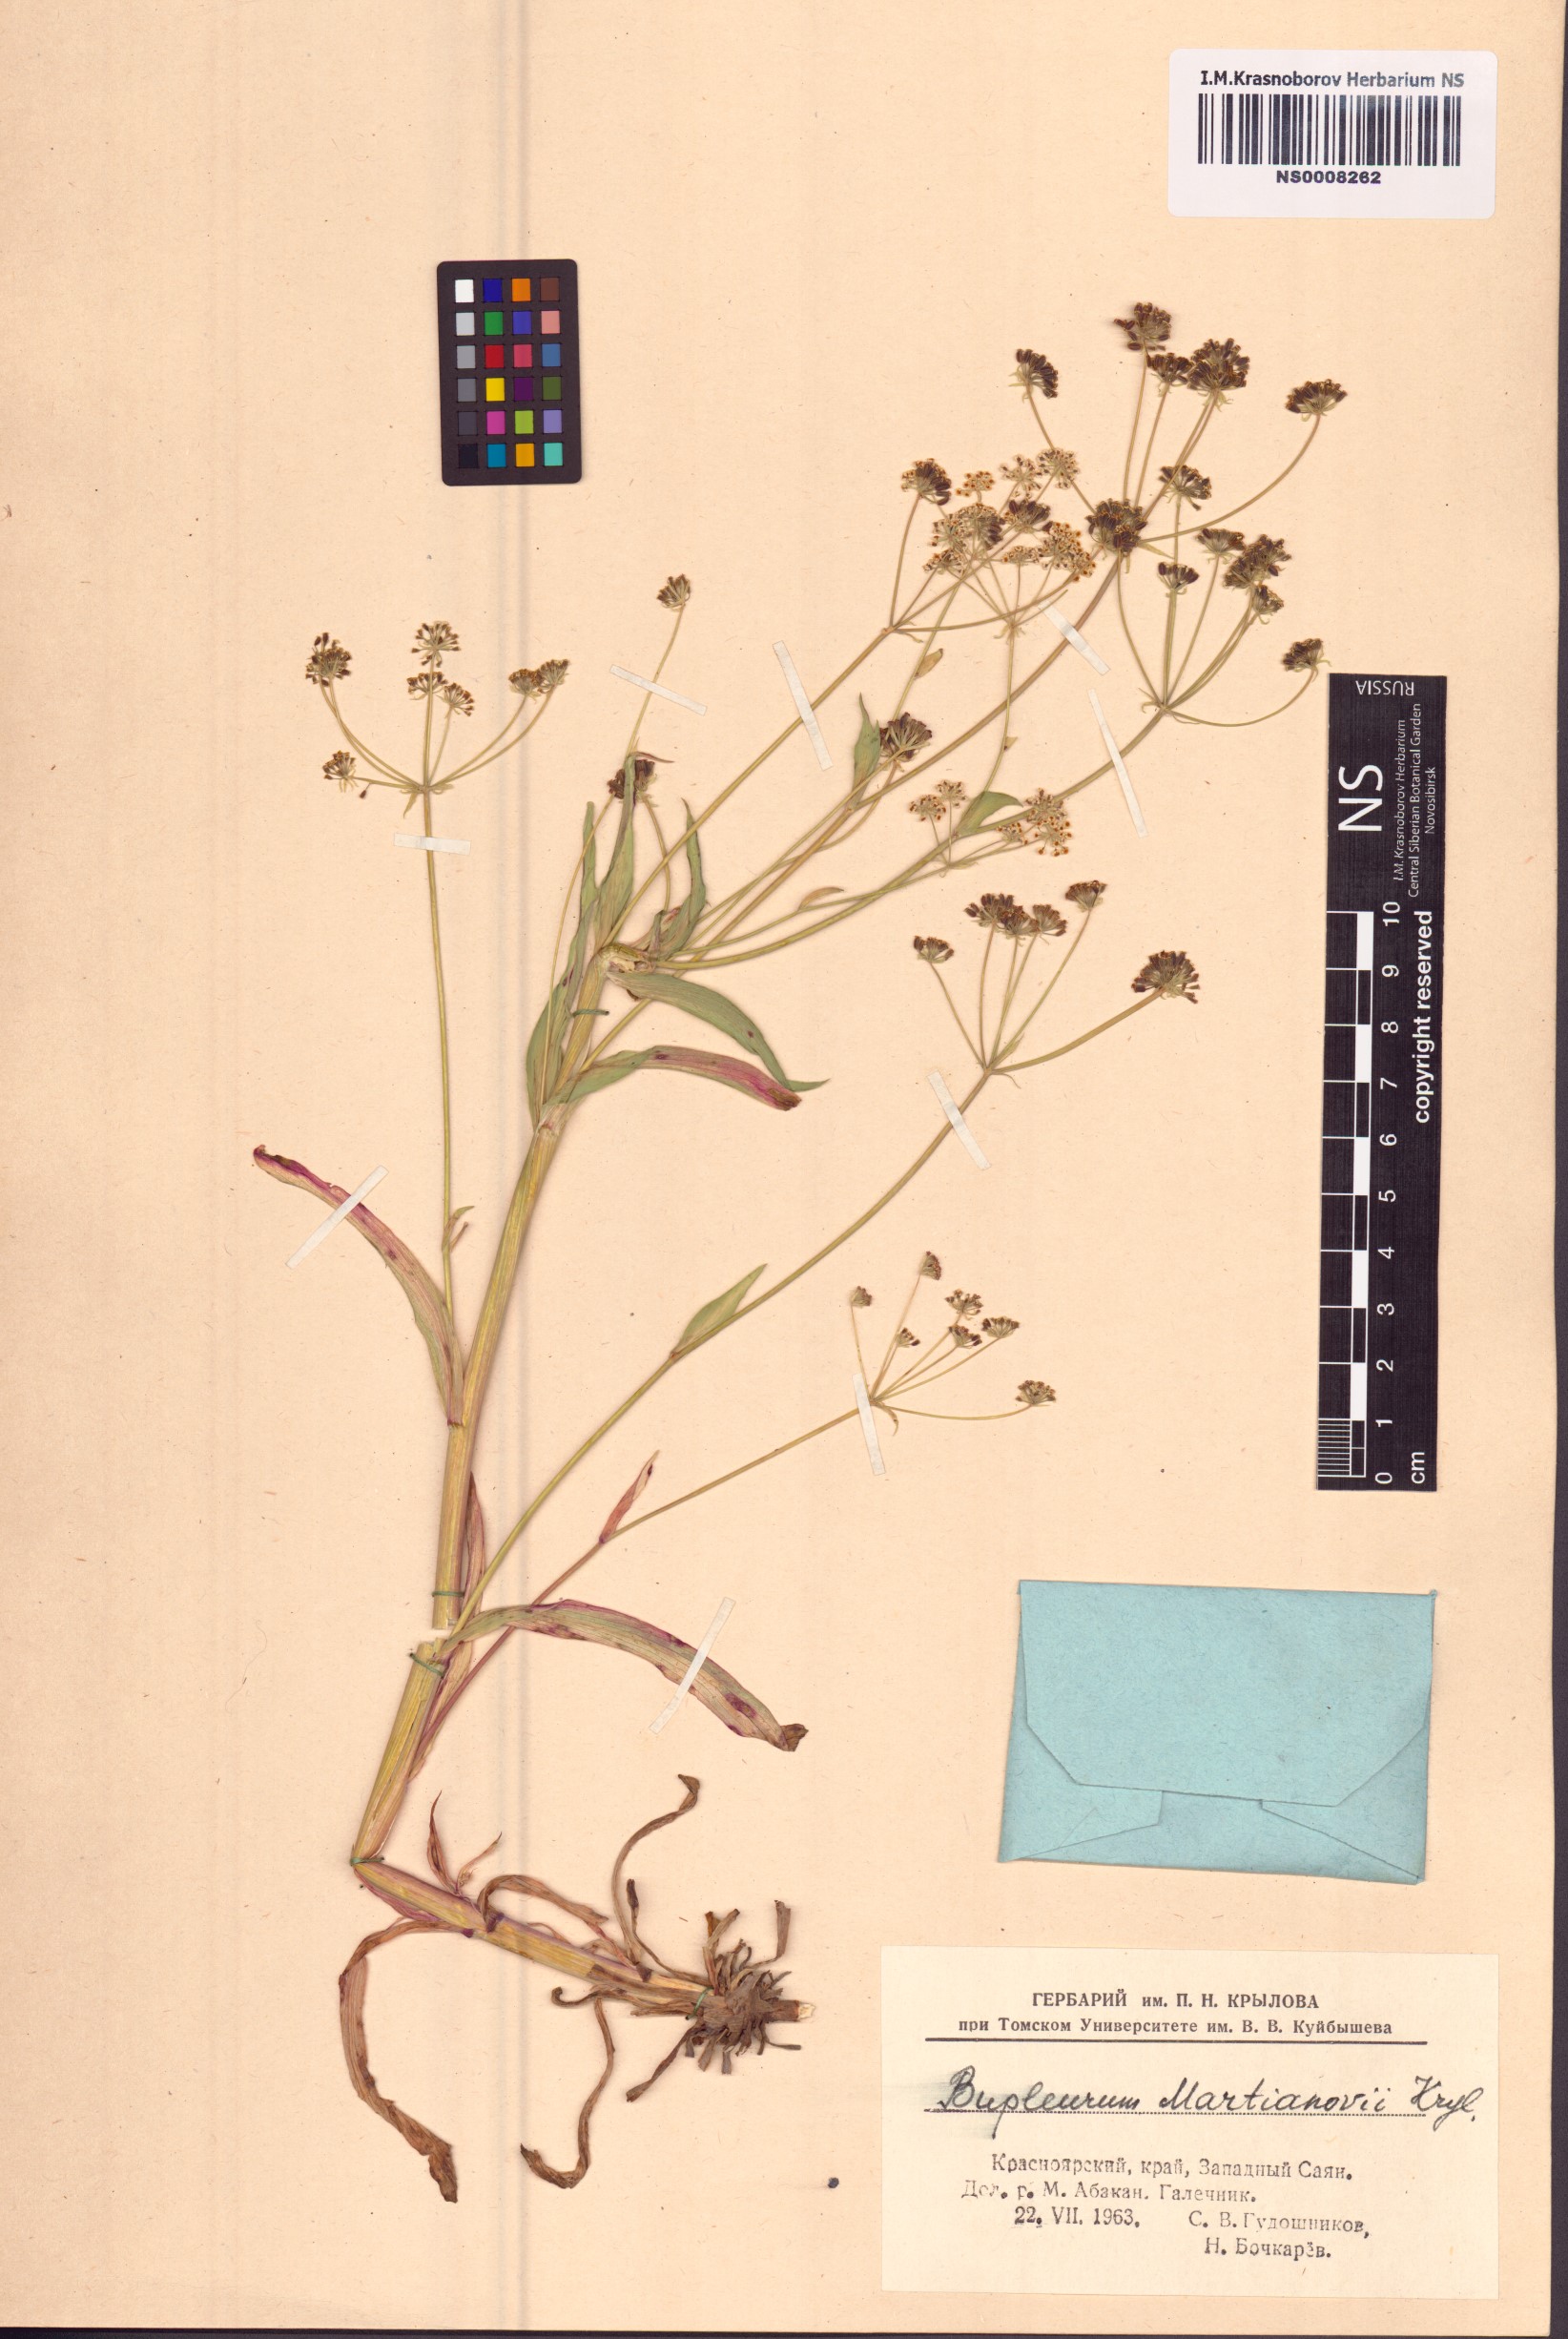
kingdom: Plantae
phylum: Tracheophyta
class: Magnoliopsida
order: Apiales
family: Apiaceae
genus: Bupleurum
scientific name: Bupleurum martjanovii
